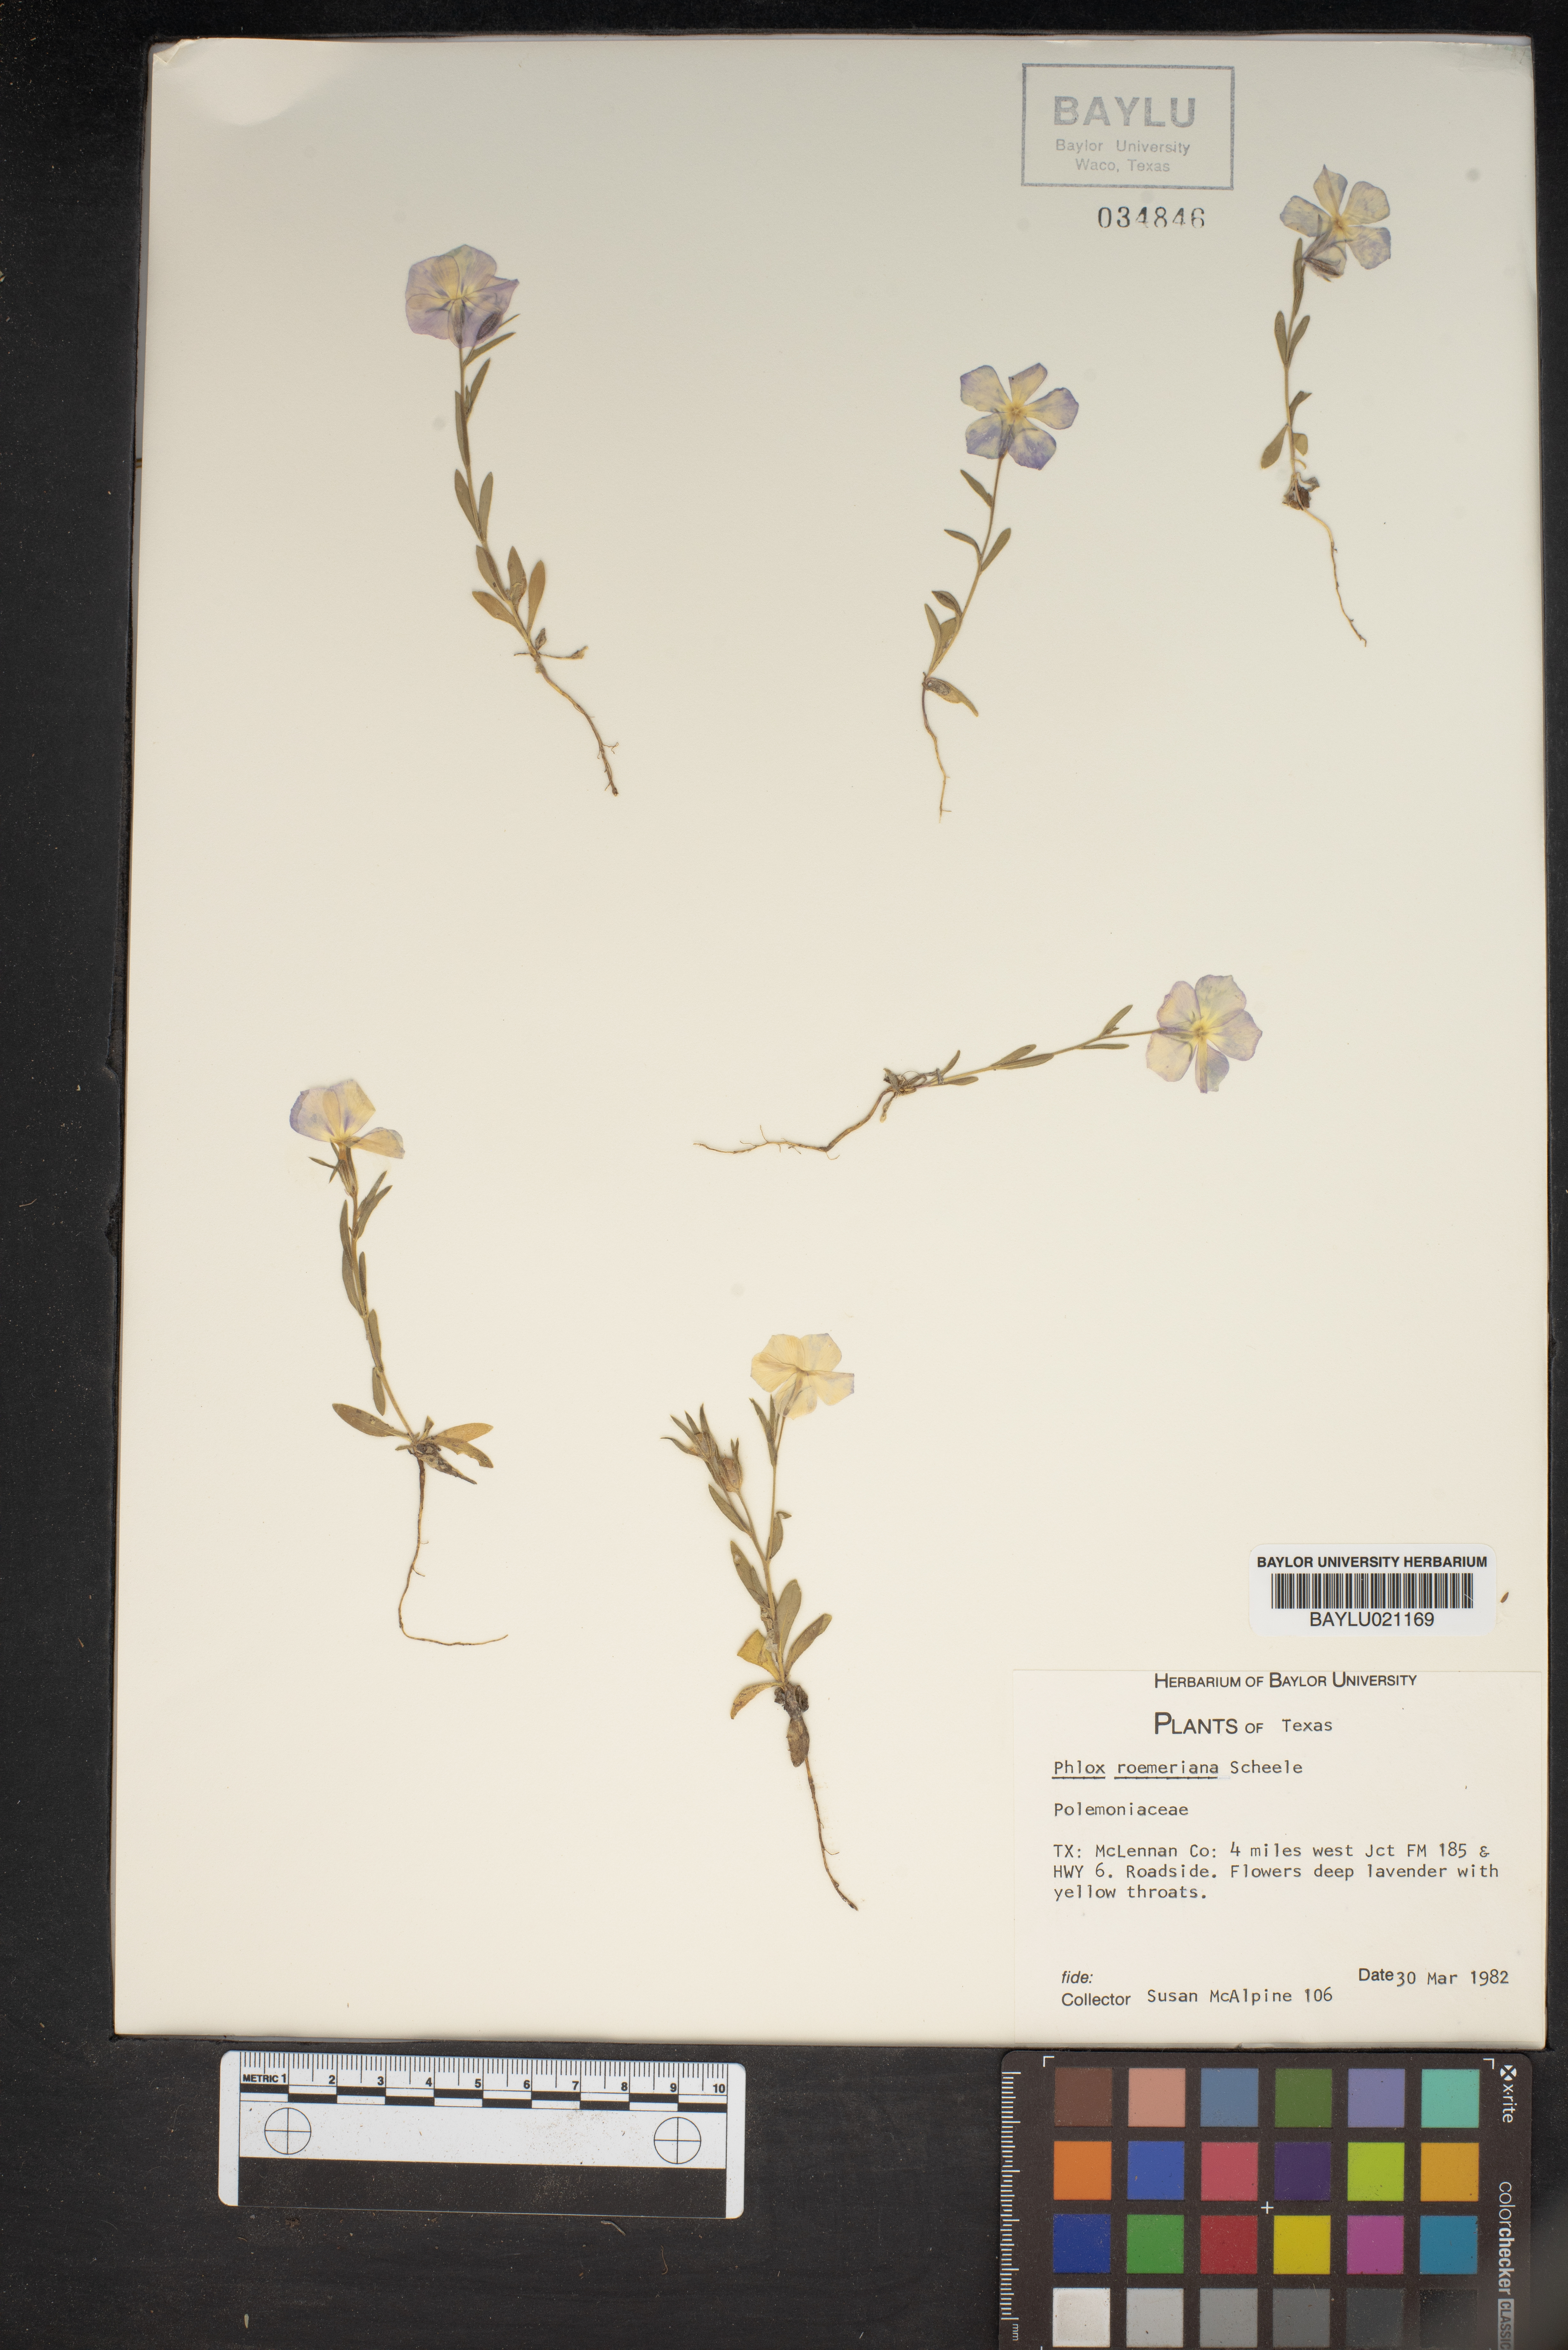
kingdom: Plantae
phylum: Tracheophyta
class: Magnoliopsida
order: Ericales
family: Polemoniaceae
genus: Phlox
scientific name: Phlox roemeriana
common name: Roemer's phlox
